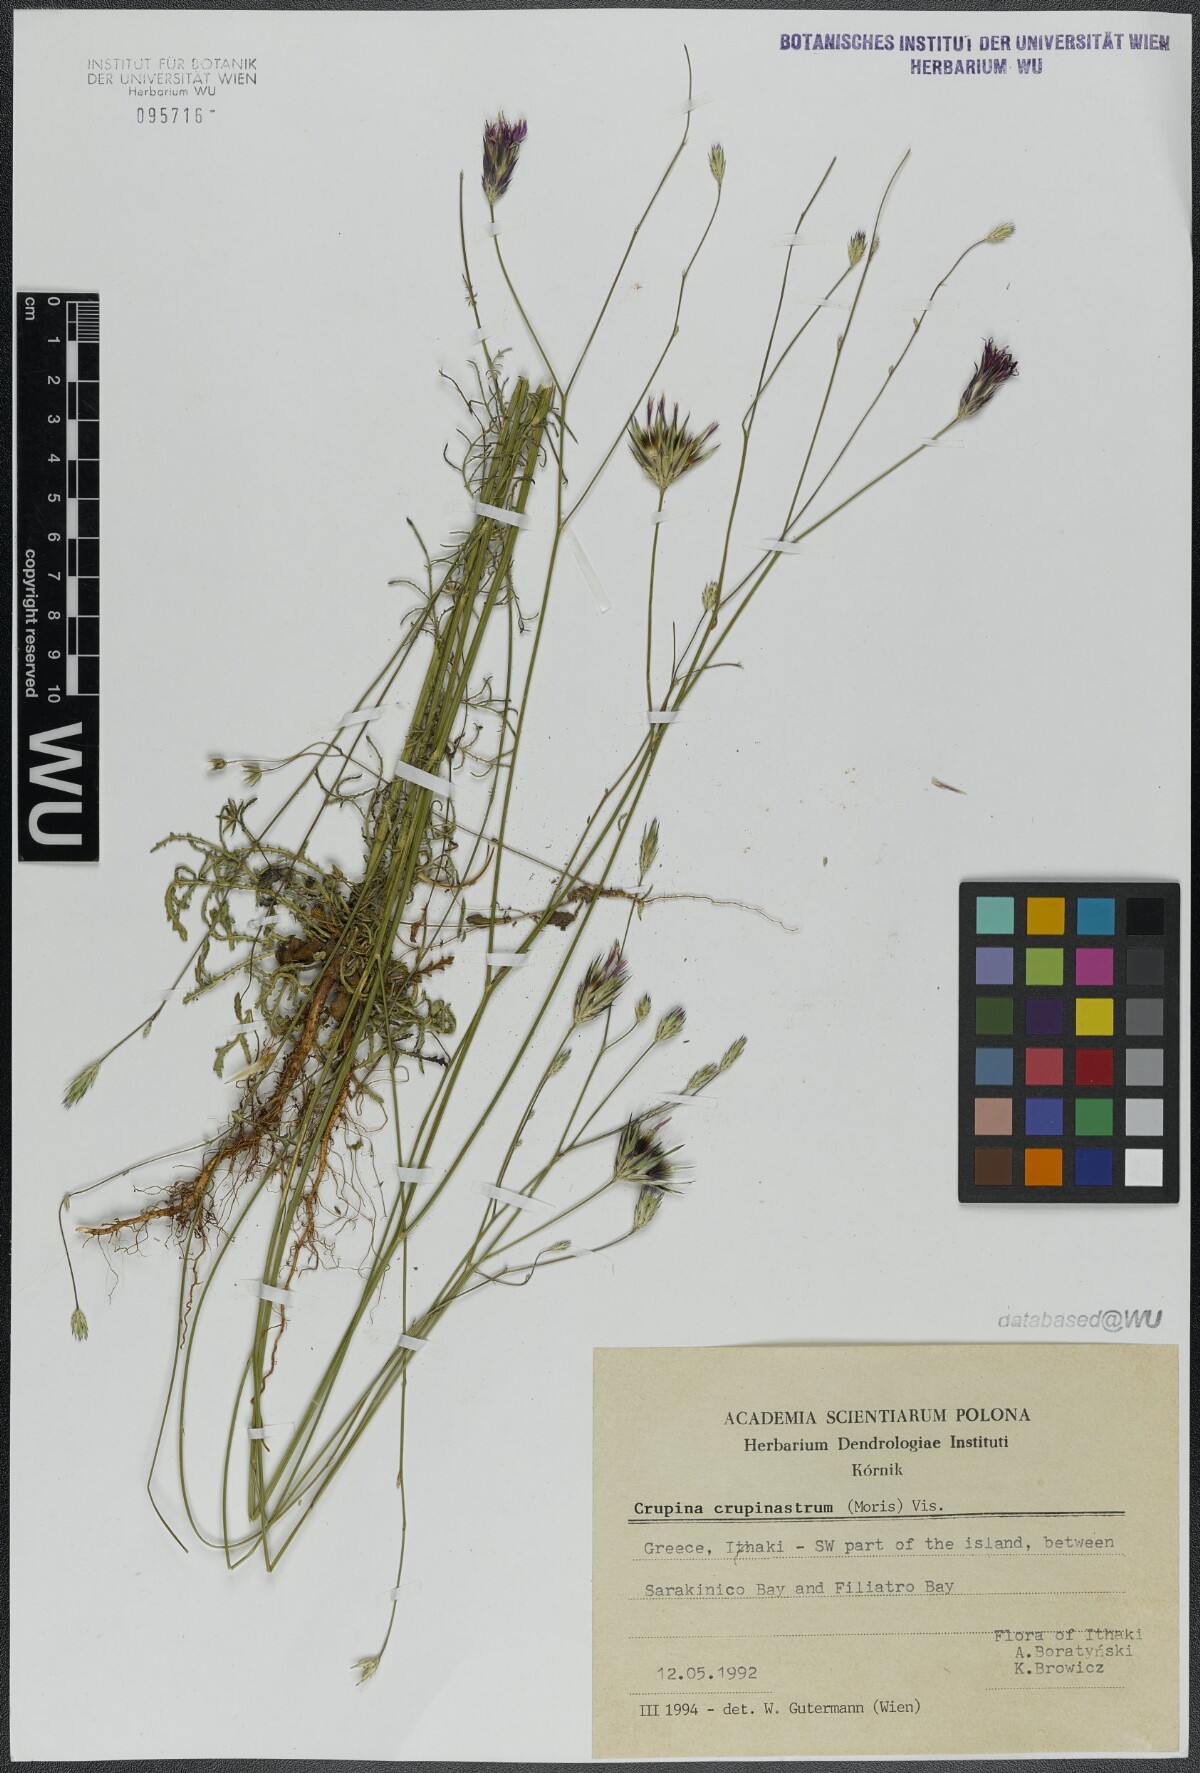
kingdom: Plantae
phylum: Tracheophyta
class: Magnoliopsida
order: Asterales
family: Asteraceae
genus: Crupina
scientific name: Crupina crupinastrum
